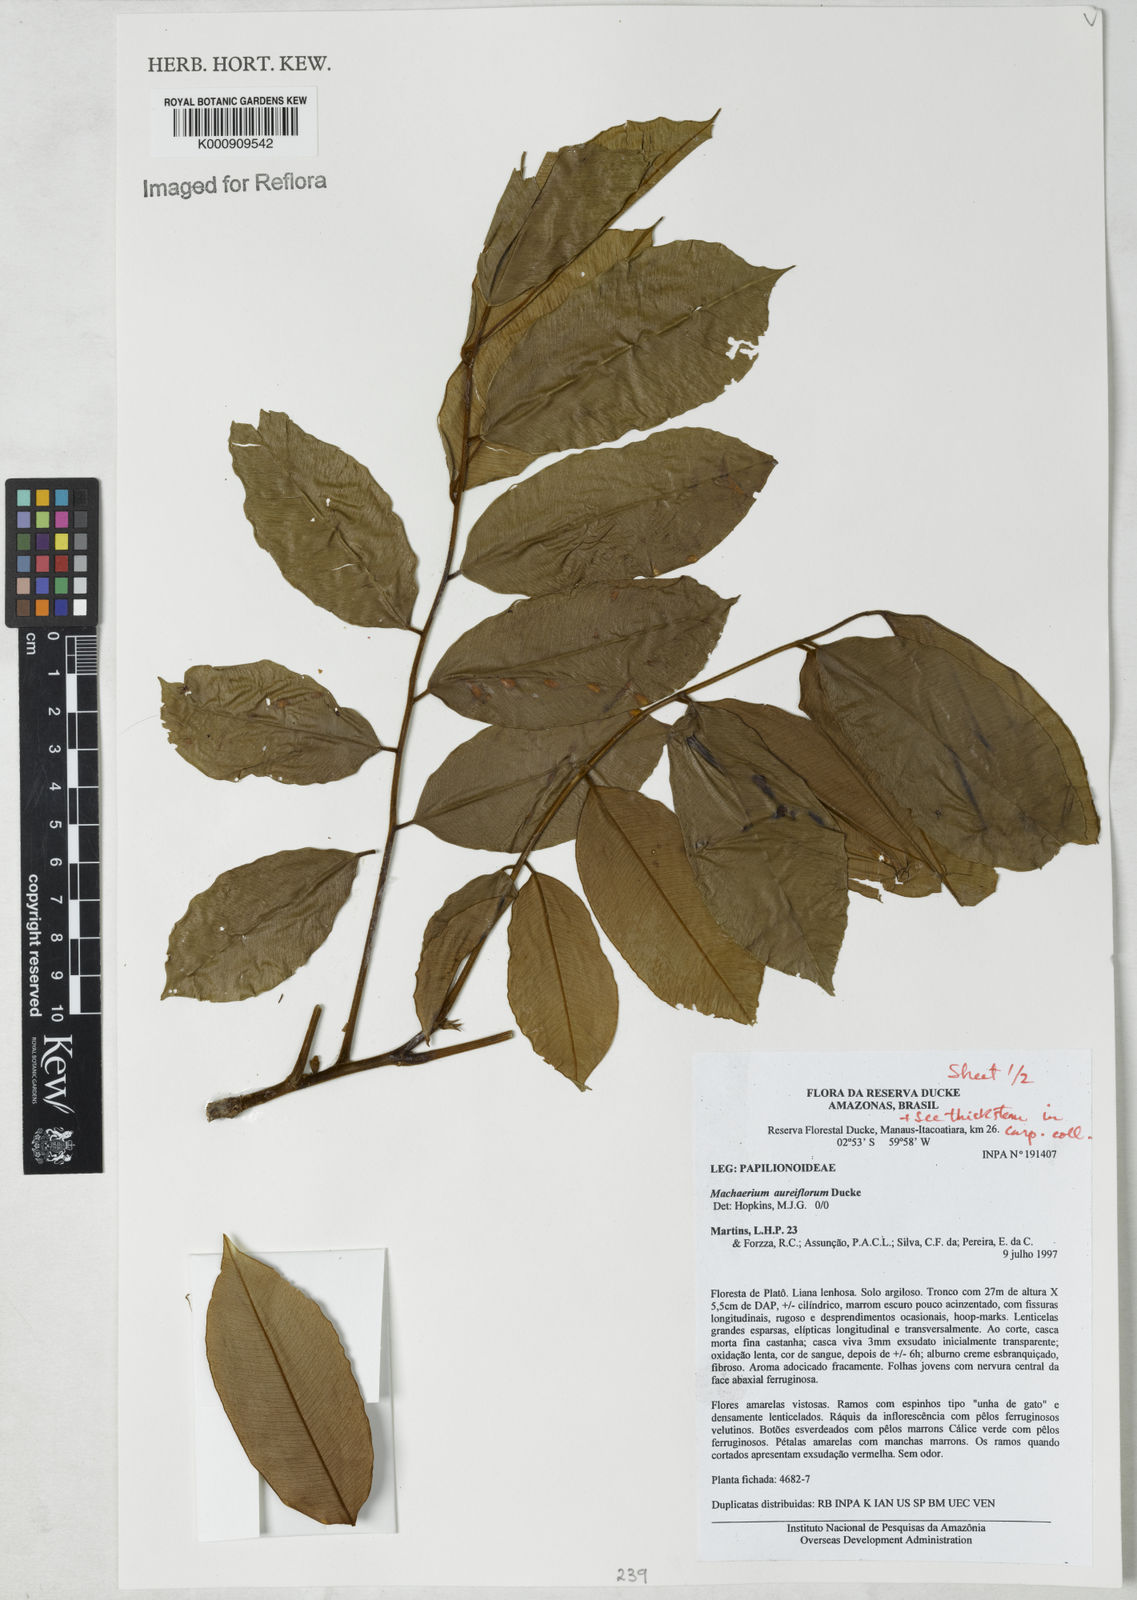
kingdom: Plantae
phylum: Tracheophyta
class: Magnoliopsida
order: Fabales
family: Fabaceae
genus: Machaerium
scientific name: Machaerium aureiflorum
